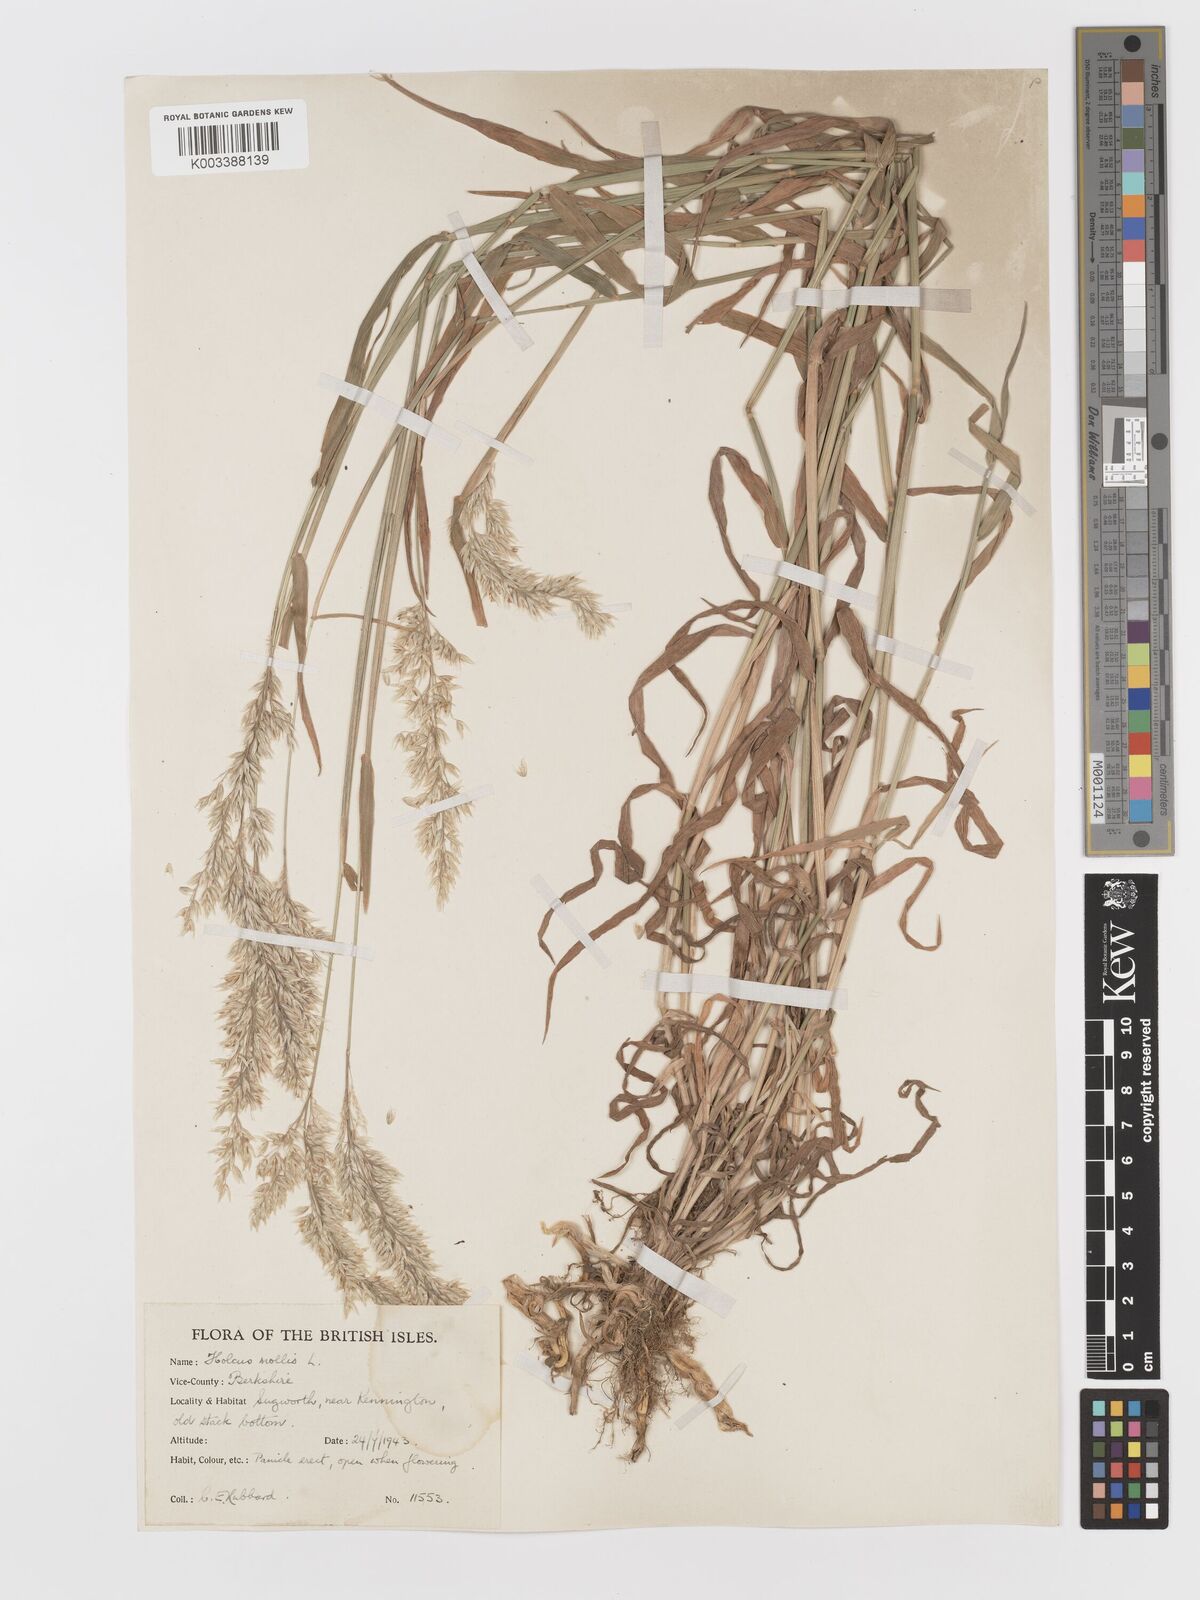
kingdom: Plantae
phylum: Tracheophyta
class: Liliopsida
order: Poales
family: Poaceae
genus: Holcus
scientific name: Holcus mollis
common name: Creeping velvetgrass
